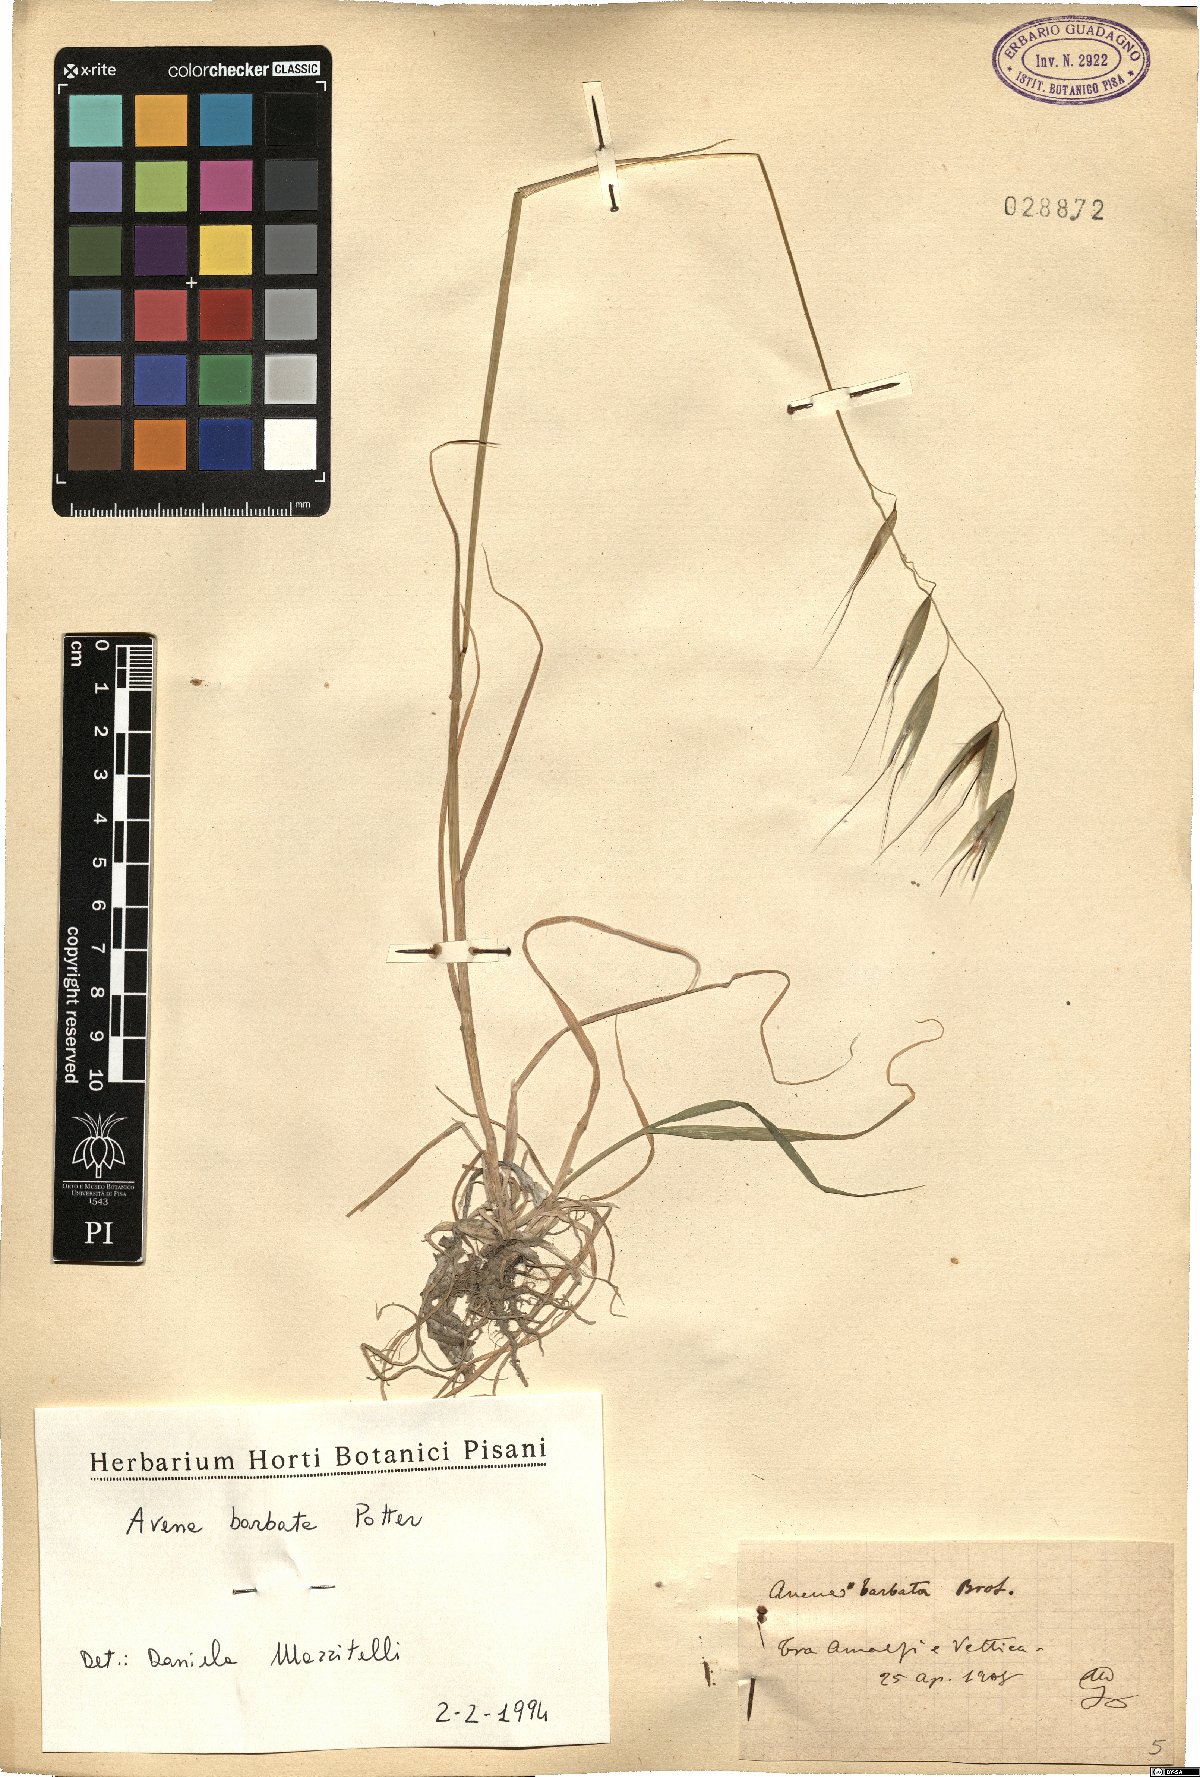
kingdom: Plantae
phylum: Tracheophyta
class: Liliopsida
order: Poales
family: Poaceae
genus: Avena
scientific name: Avena barbata
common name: Slender oat
